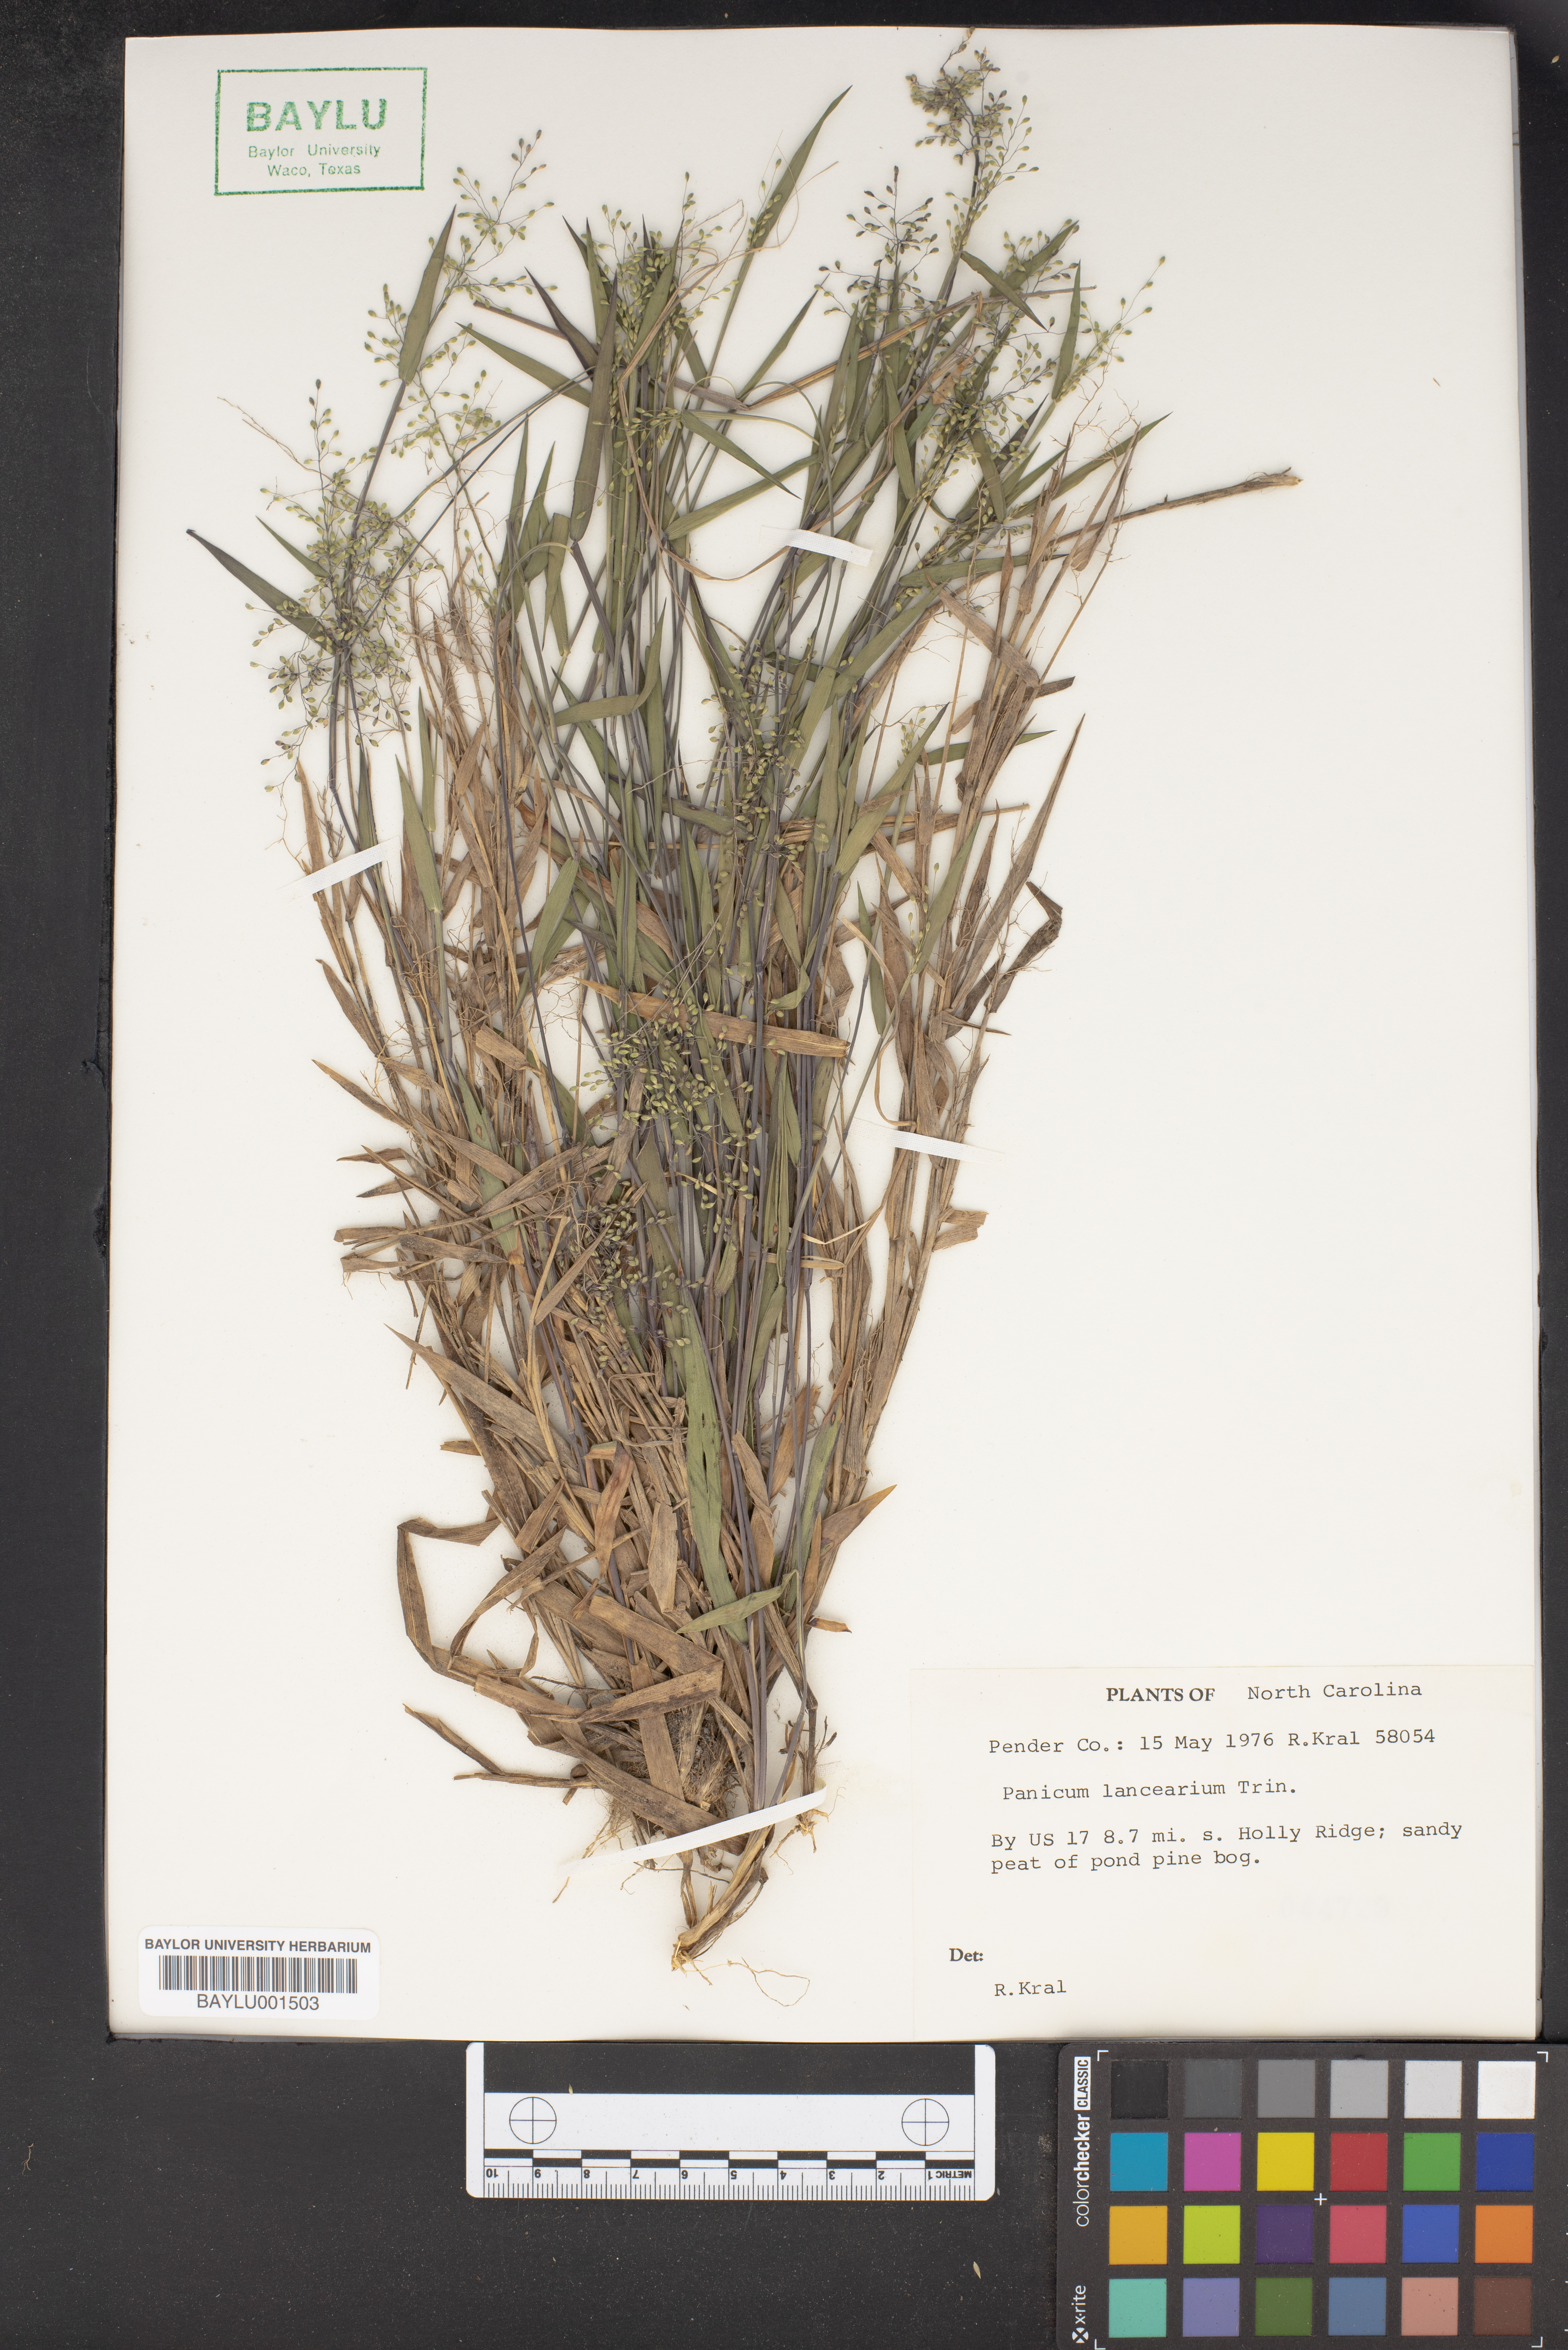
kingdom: Plantae
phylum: Tracheophyta
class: Liliopsida
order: Poales
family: Poaceae
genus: Dichanthelium
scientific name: Dichanthelium portoricense
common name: American panicgrass
